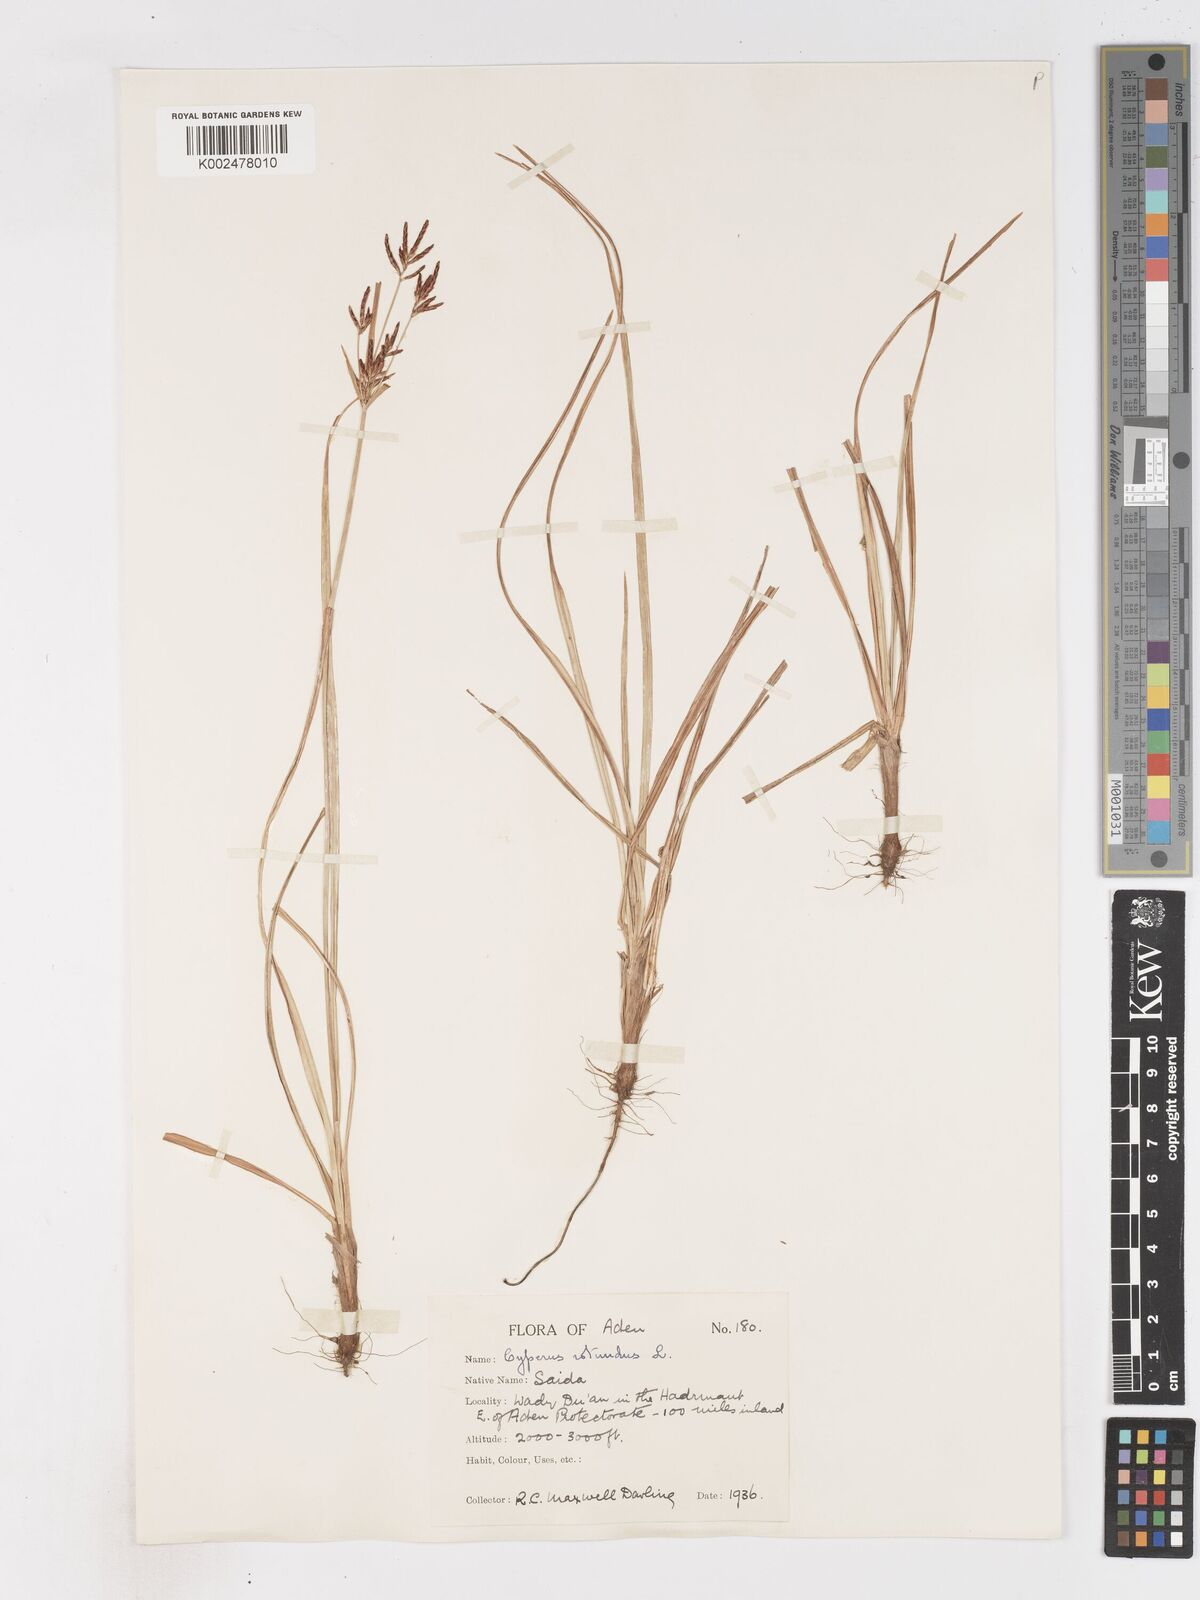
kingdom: Plantae
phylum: Tracheophyta
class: Liliopsida
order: Poales
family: Cyperaceae
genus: Cyperus
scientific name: Cyperus rotundus
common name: Nutgrass
